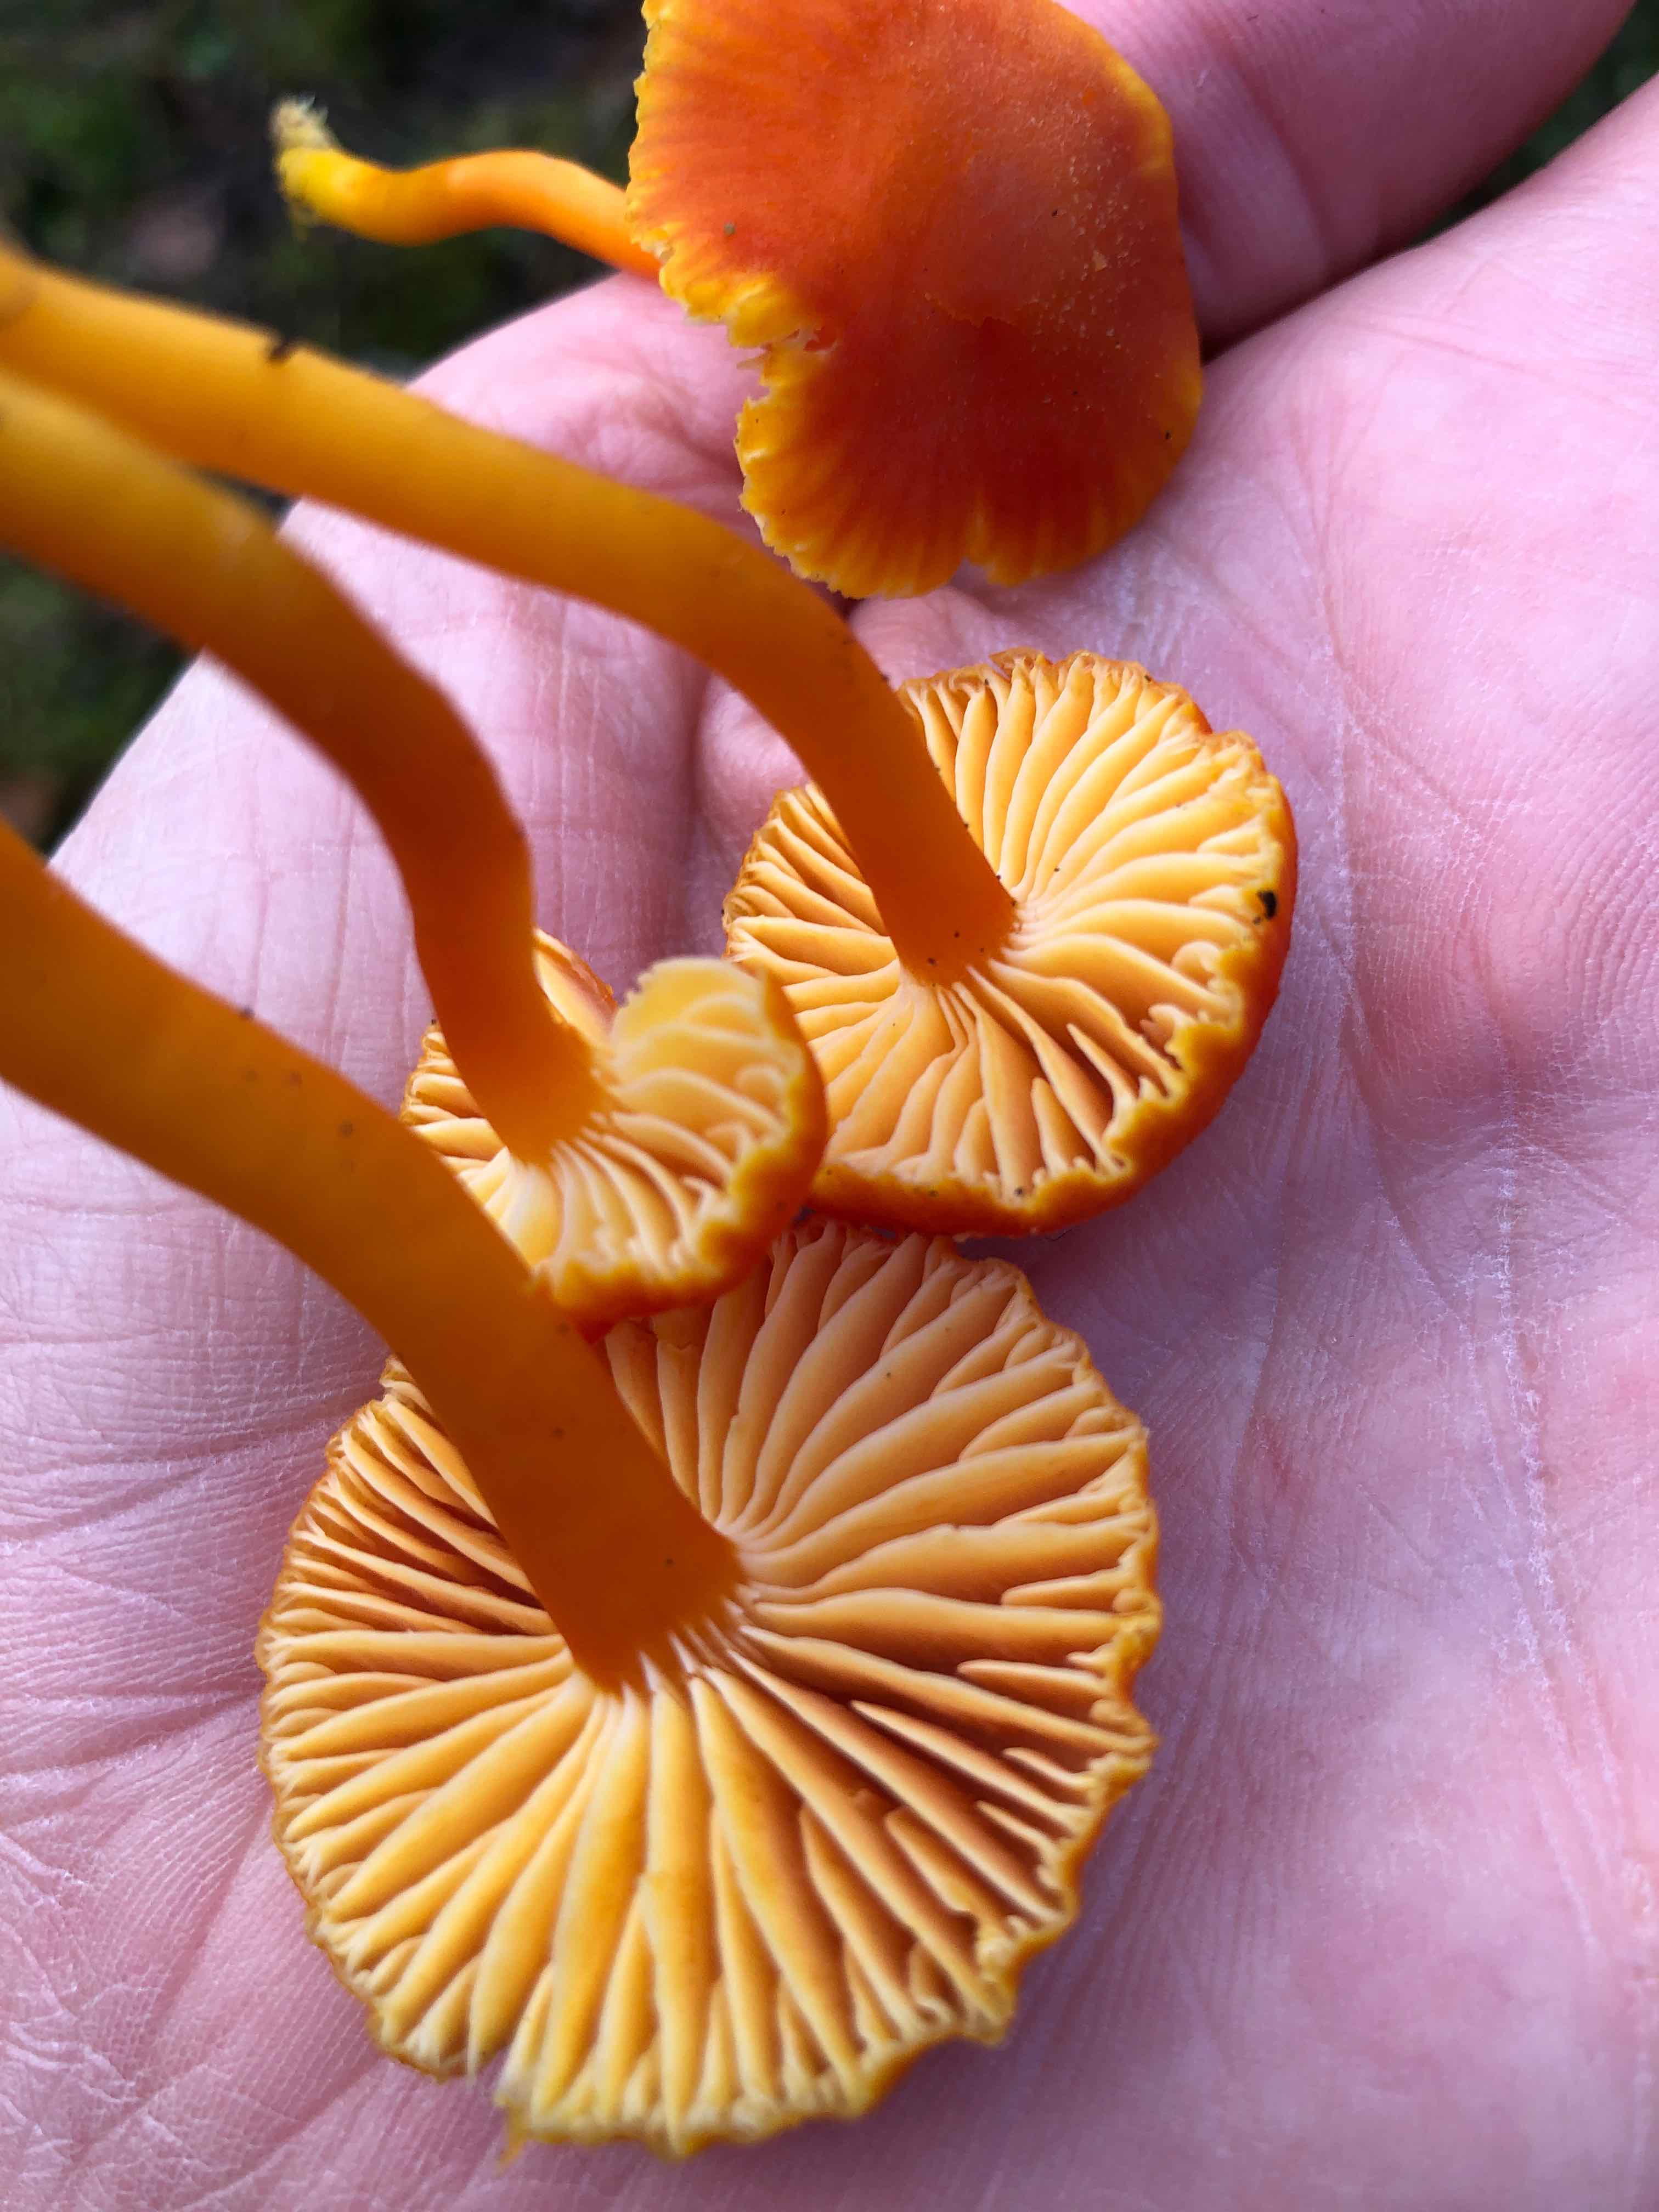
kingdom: Fungi
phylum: Basidiomycota
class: Agaricomycetes
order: Agaricales
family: Hygrophoraceae
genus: Hygrocybe
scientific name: Hygrocybe miniata
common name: mønje-vokshat
